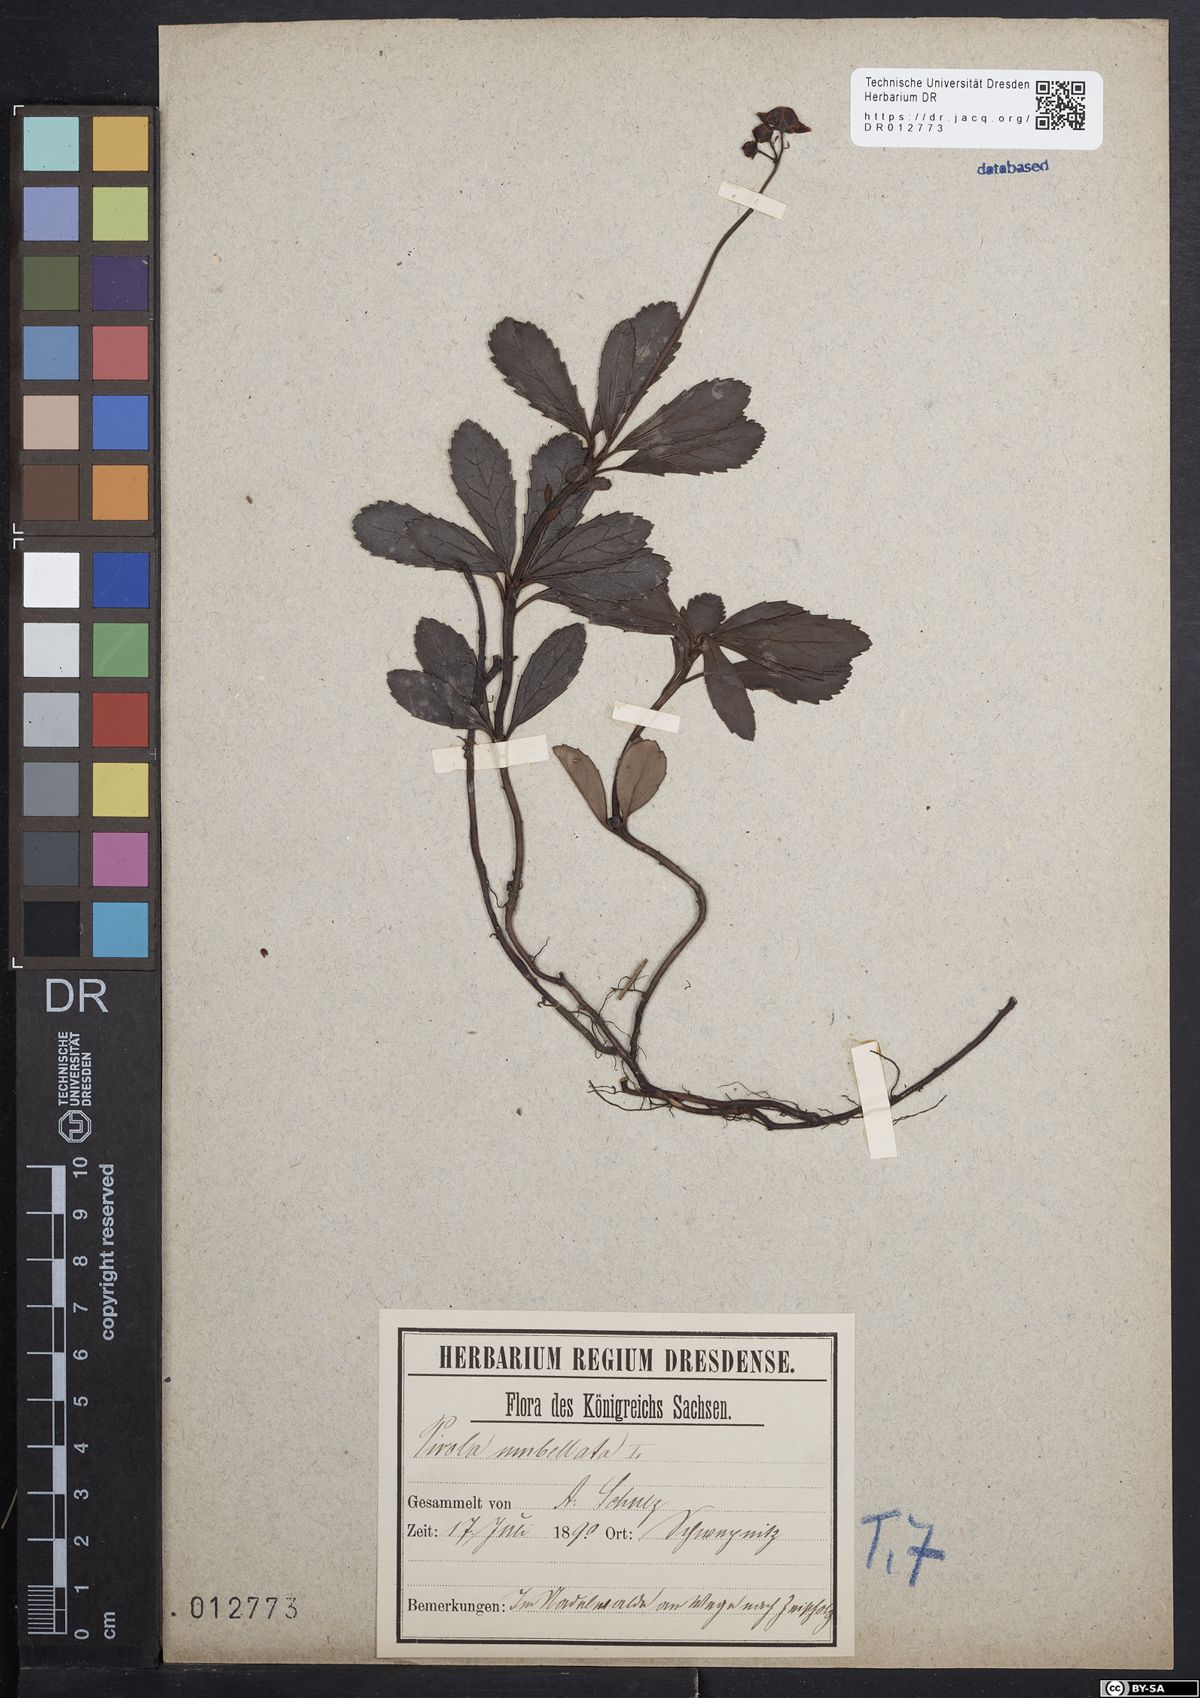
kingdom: Plantae
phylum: Tracheophyta
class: Magnoliopsida
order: Ericales
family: Ericaceae
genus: Chimaphila
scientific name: Chimaphila umbellata
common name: Pipsissewa
